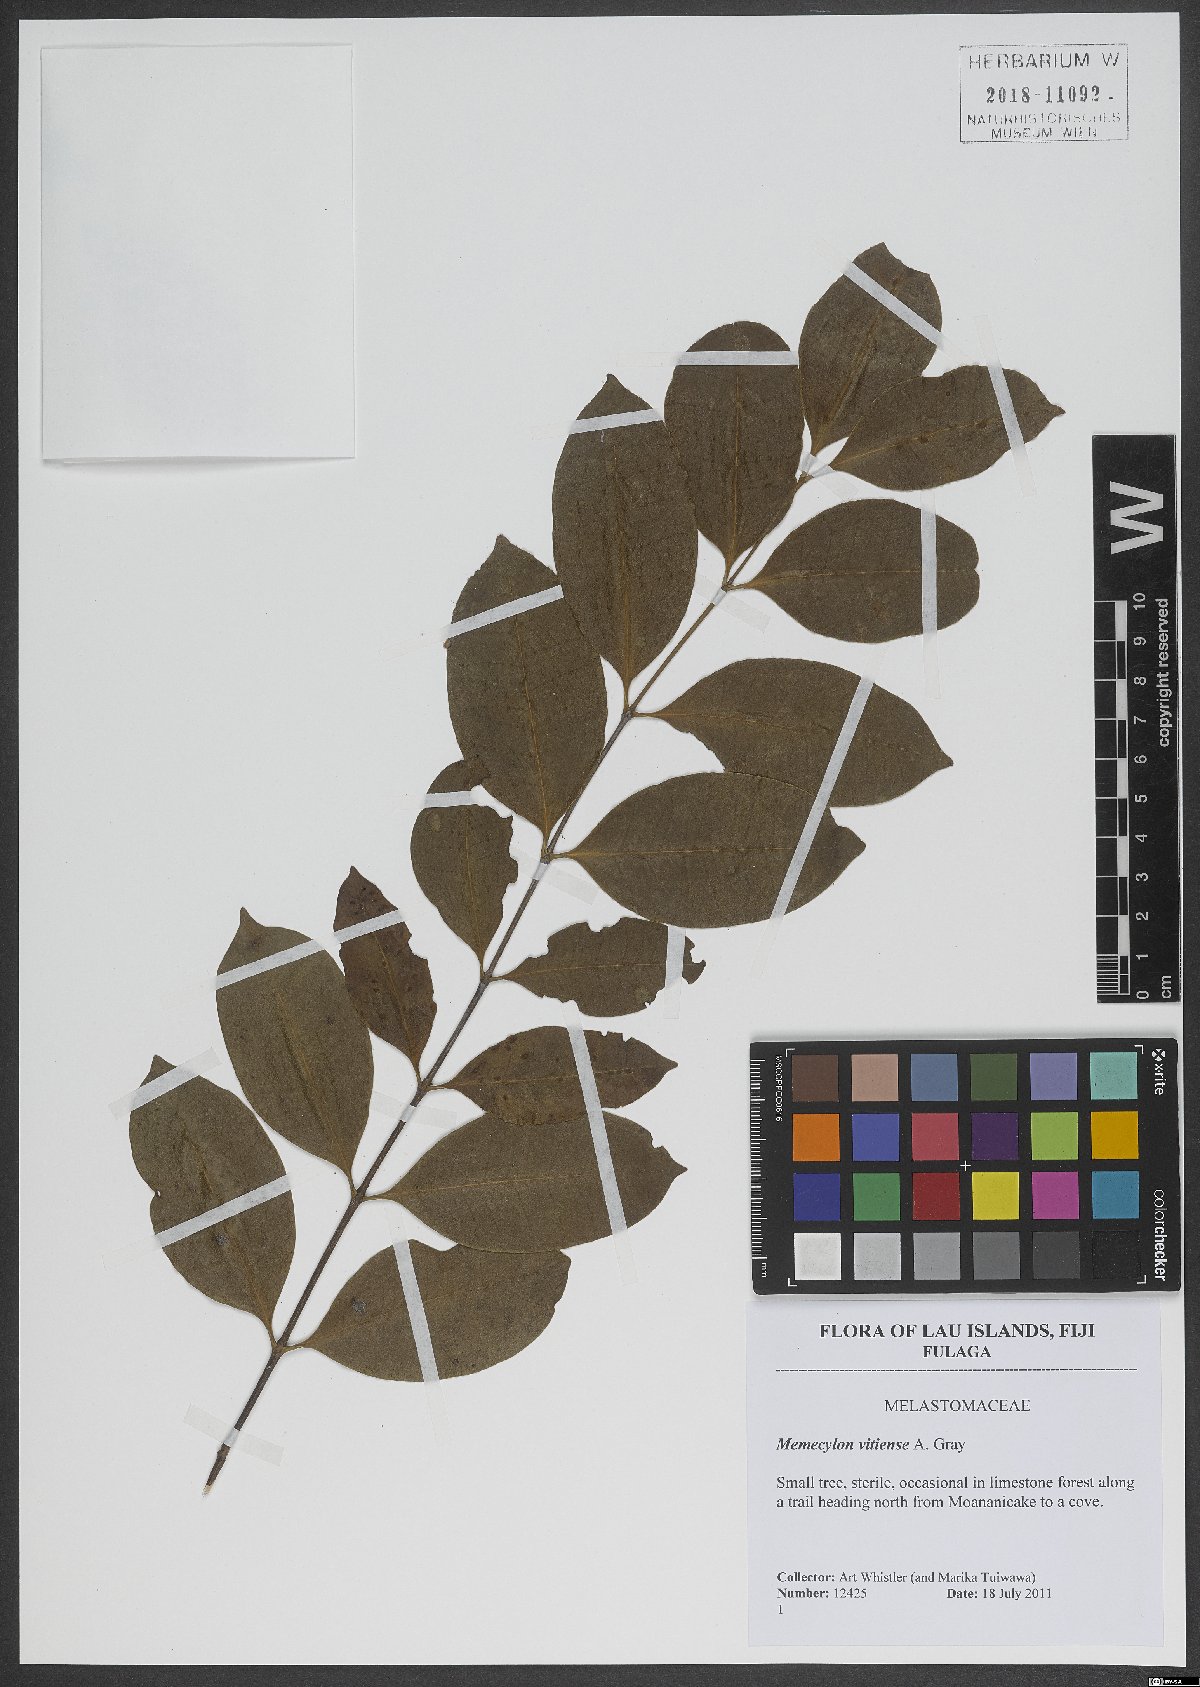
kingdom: Plantae
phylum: Tracheophyta
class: Magnoliopsida
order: Myrtales
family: Melastomataceae
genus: Memecylon
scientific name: Memecylon vitiense
